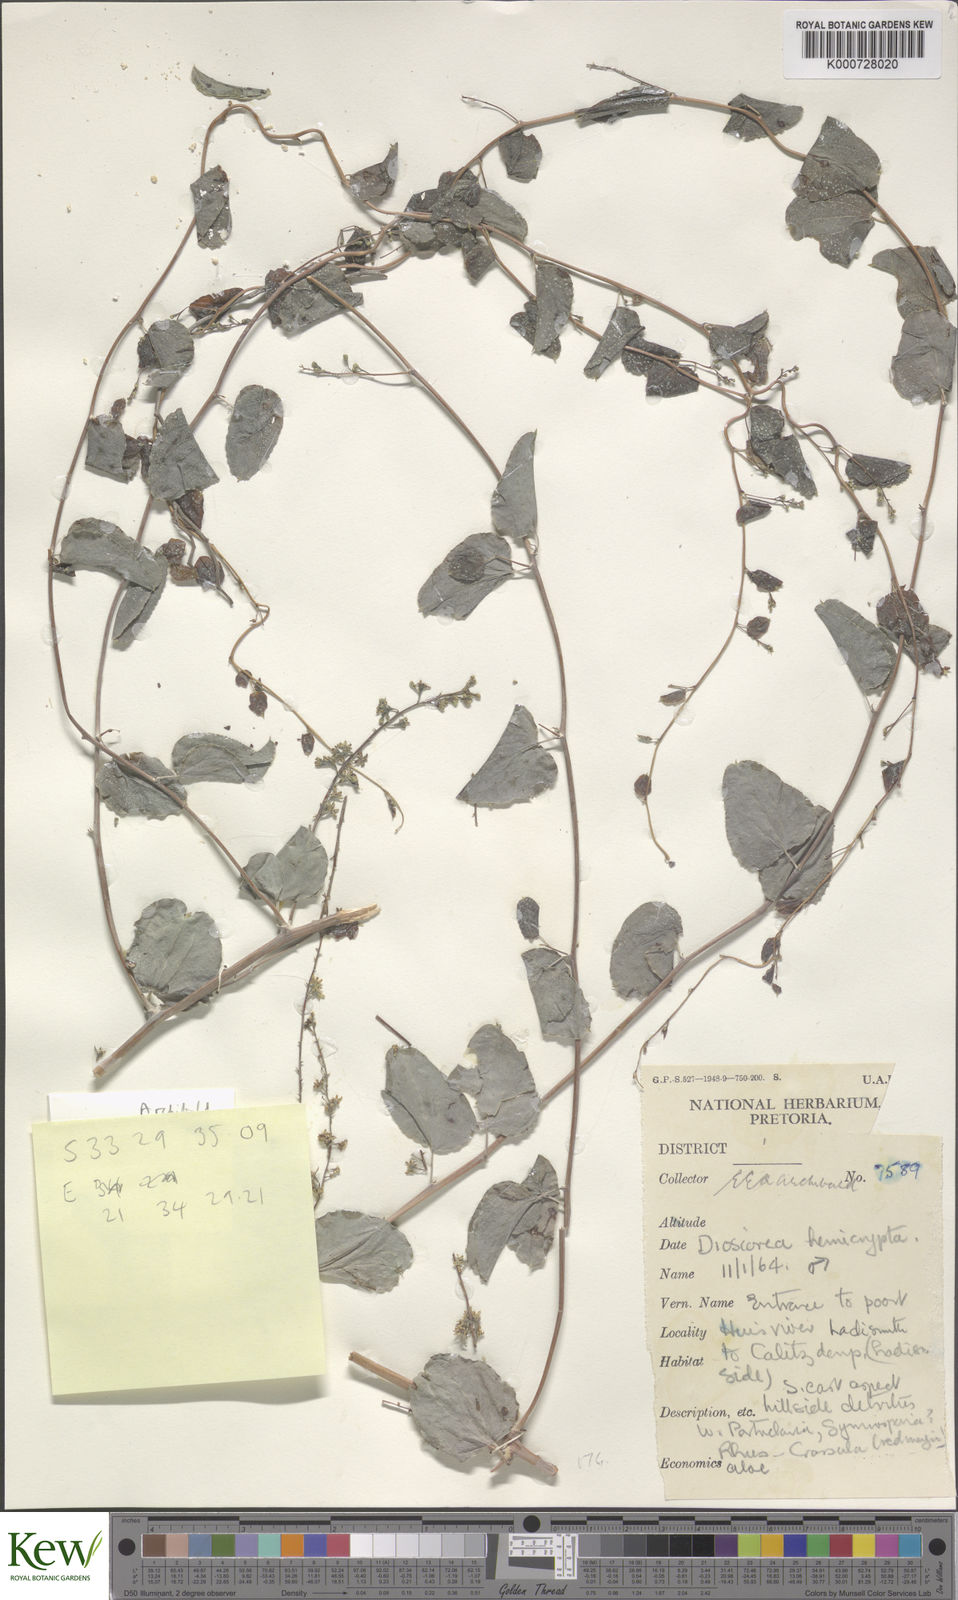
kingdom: Plantae
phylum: Tracheophyta
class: Liliopsida
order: Dioscoreales
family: Dioscoreaceae
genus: Dioscorea
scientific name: Dioscorea hemicrypta
